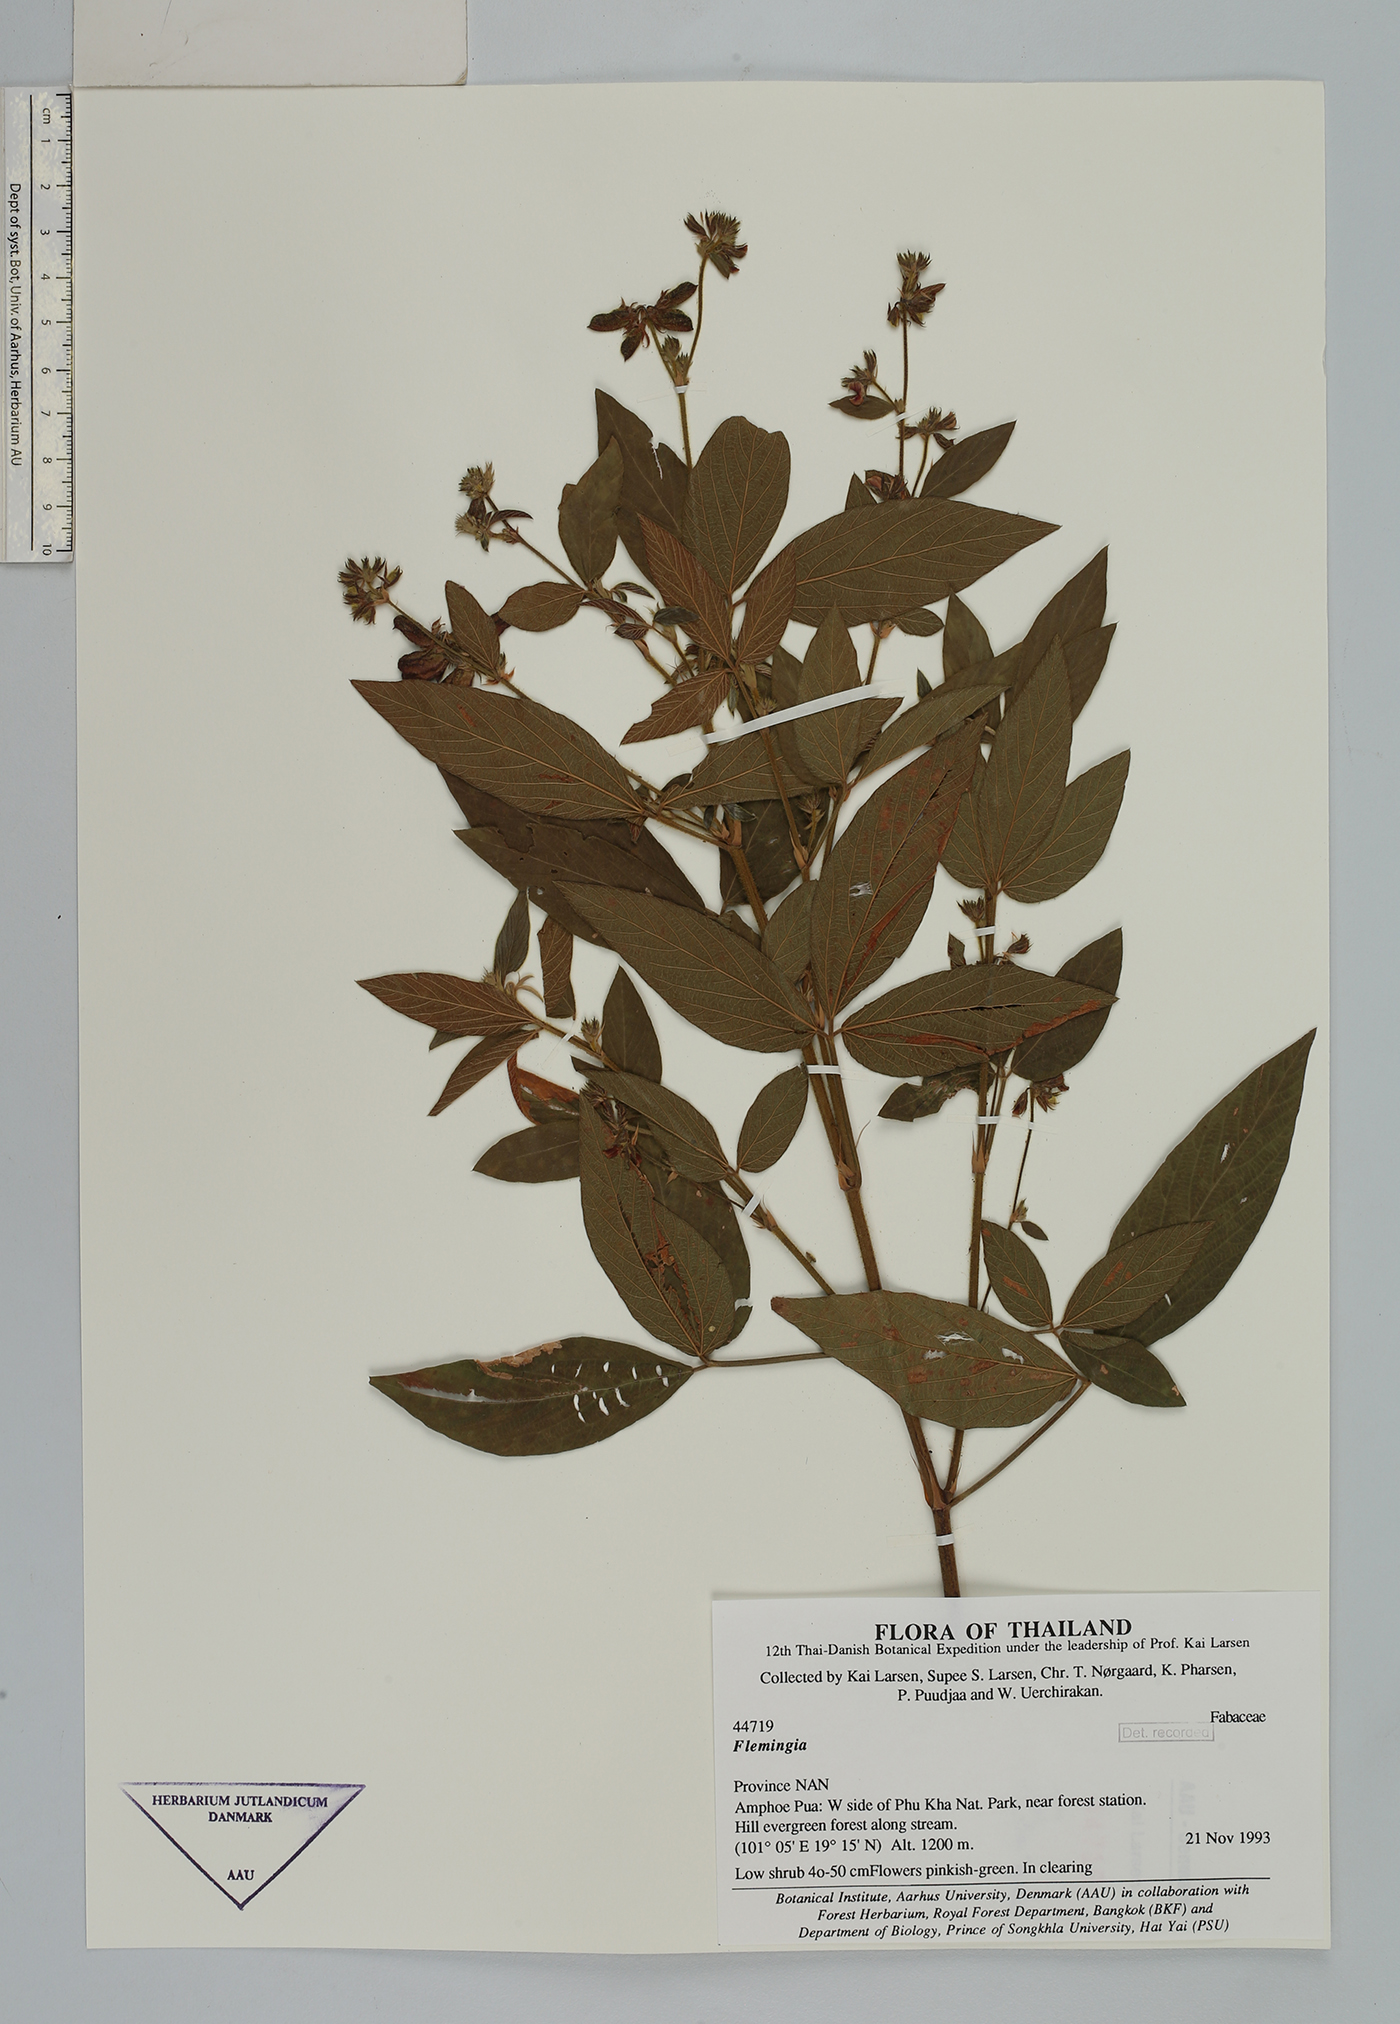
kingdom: Plantae
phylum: Tracheophyta
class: Magnoliopsida
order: Fabales
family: Fabaceae
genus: Flemingia
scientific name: Flemingia lineata
